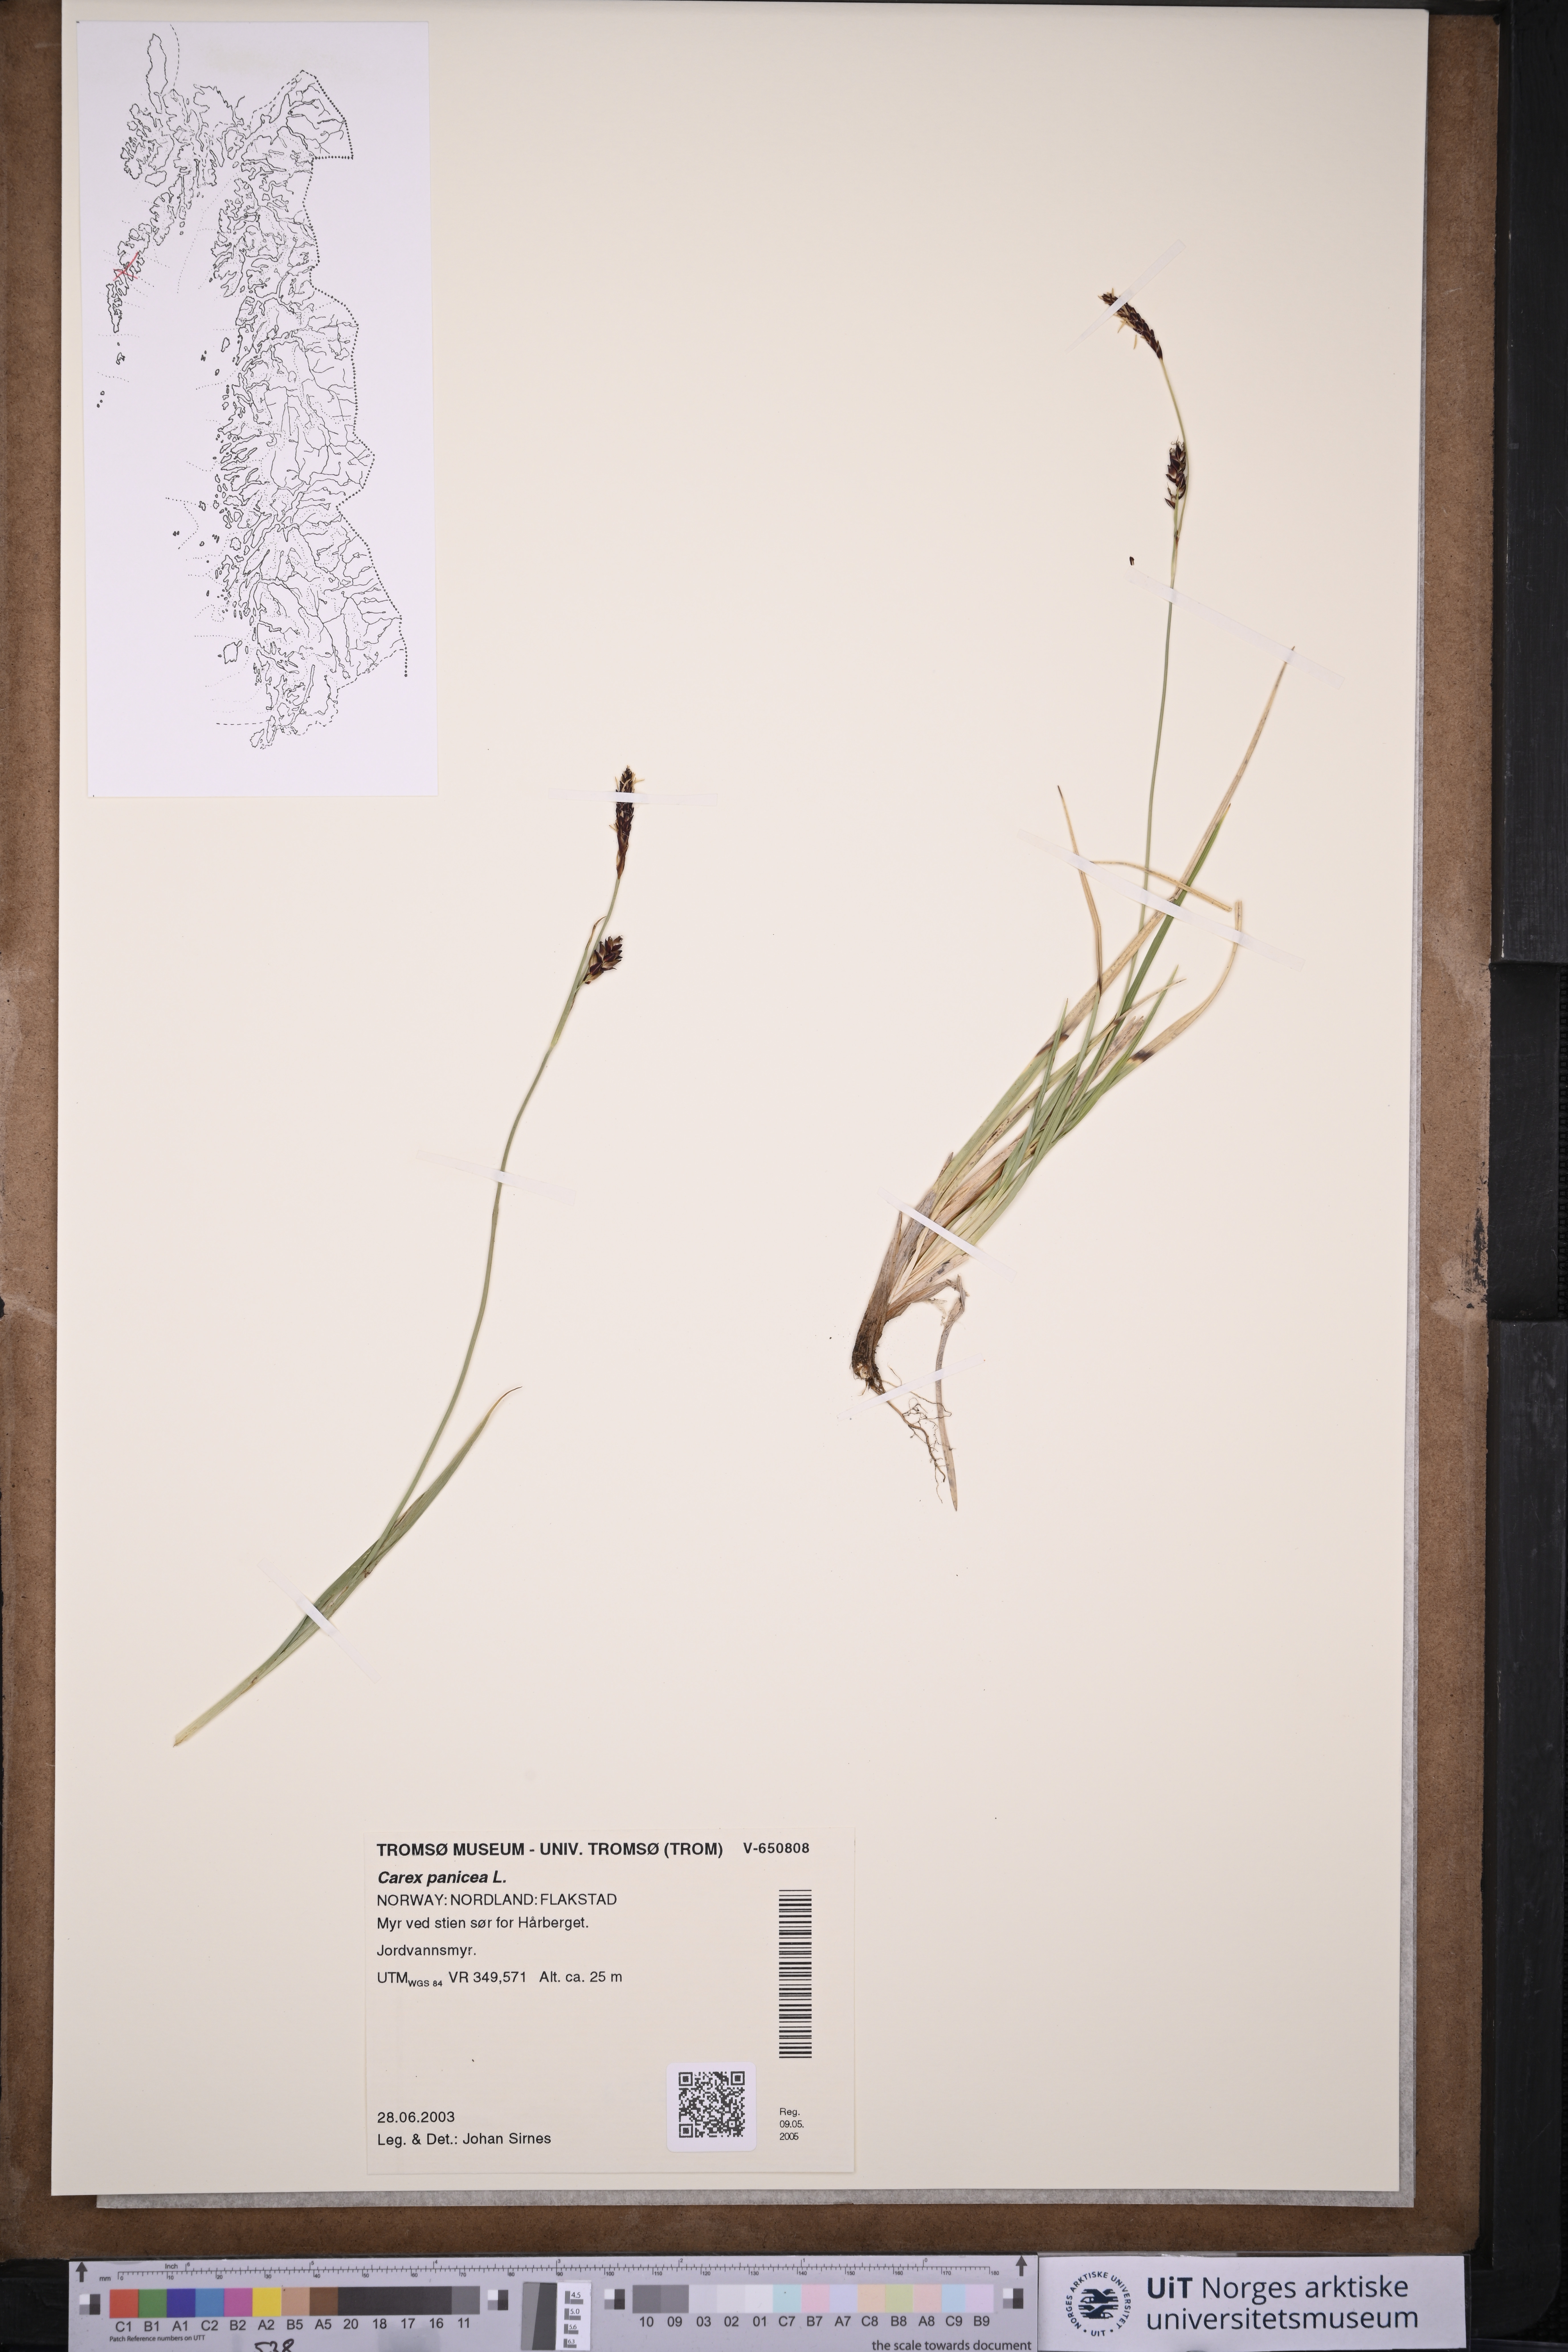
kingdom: Plantae
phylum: Tracheophyta
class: Liliopsida
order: Poales
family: Cyperaceae
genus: Carex
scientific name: Carex panicea
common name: Carnation sedge
